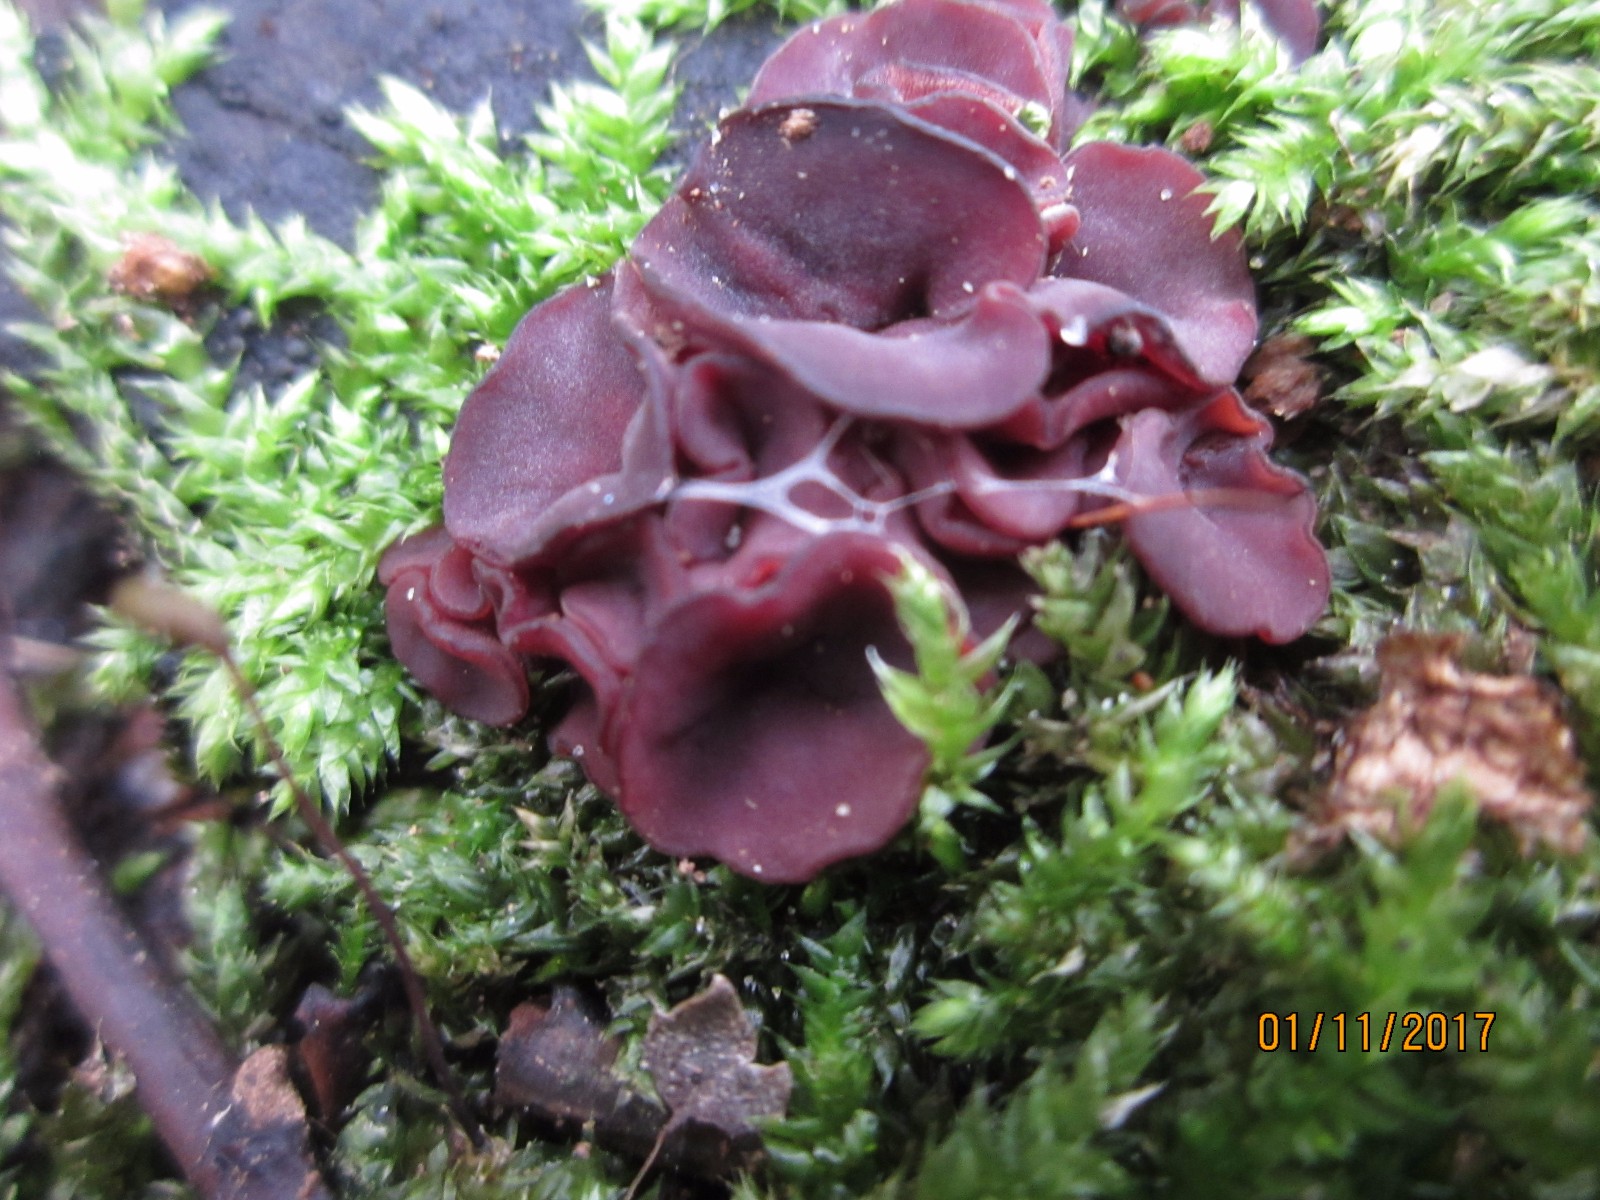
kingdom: Fungi
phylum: Ascomycota
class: Leotiomycetes
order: Helotiales
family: Gelatinodiscaceae
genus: Ascocoryne
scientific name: Ascocoryne cylichnium
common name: stor sejskive
